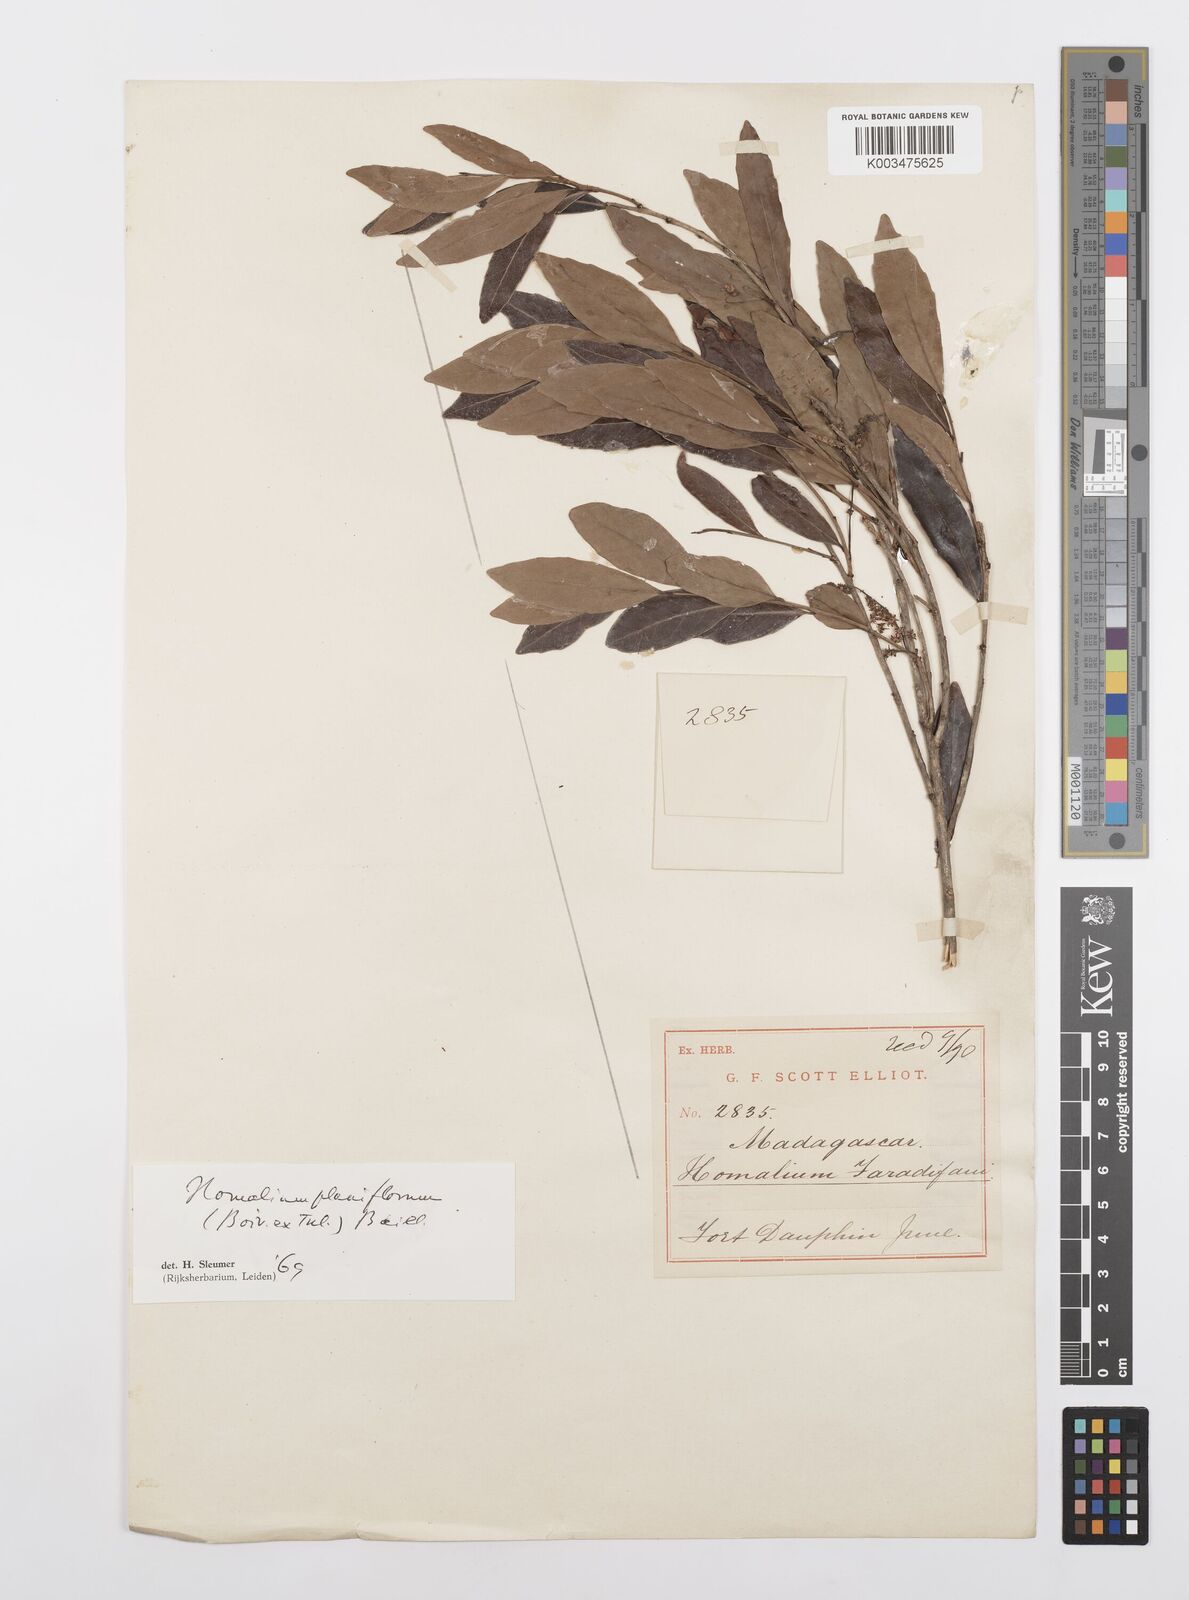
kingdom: Plantae
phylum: Tracheophyta
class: Magnoliopsida
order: Malpighiales
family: Salicaceae
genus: Homalium
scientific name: Homalium planiflorum
